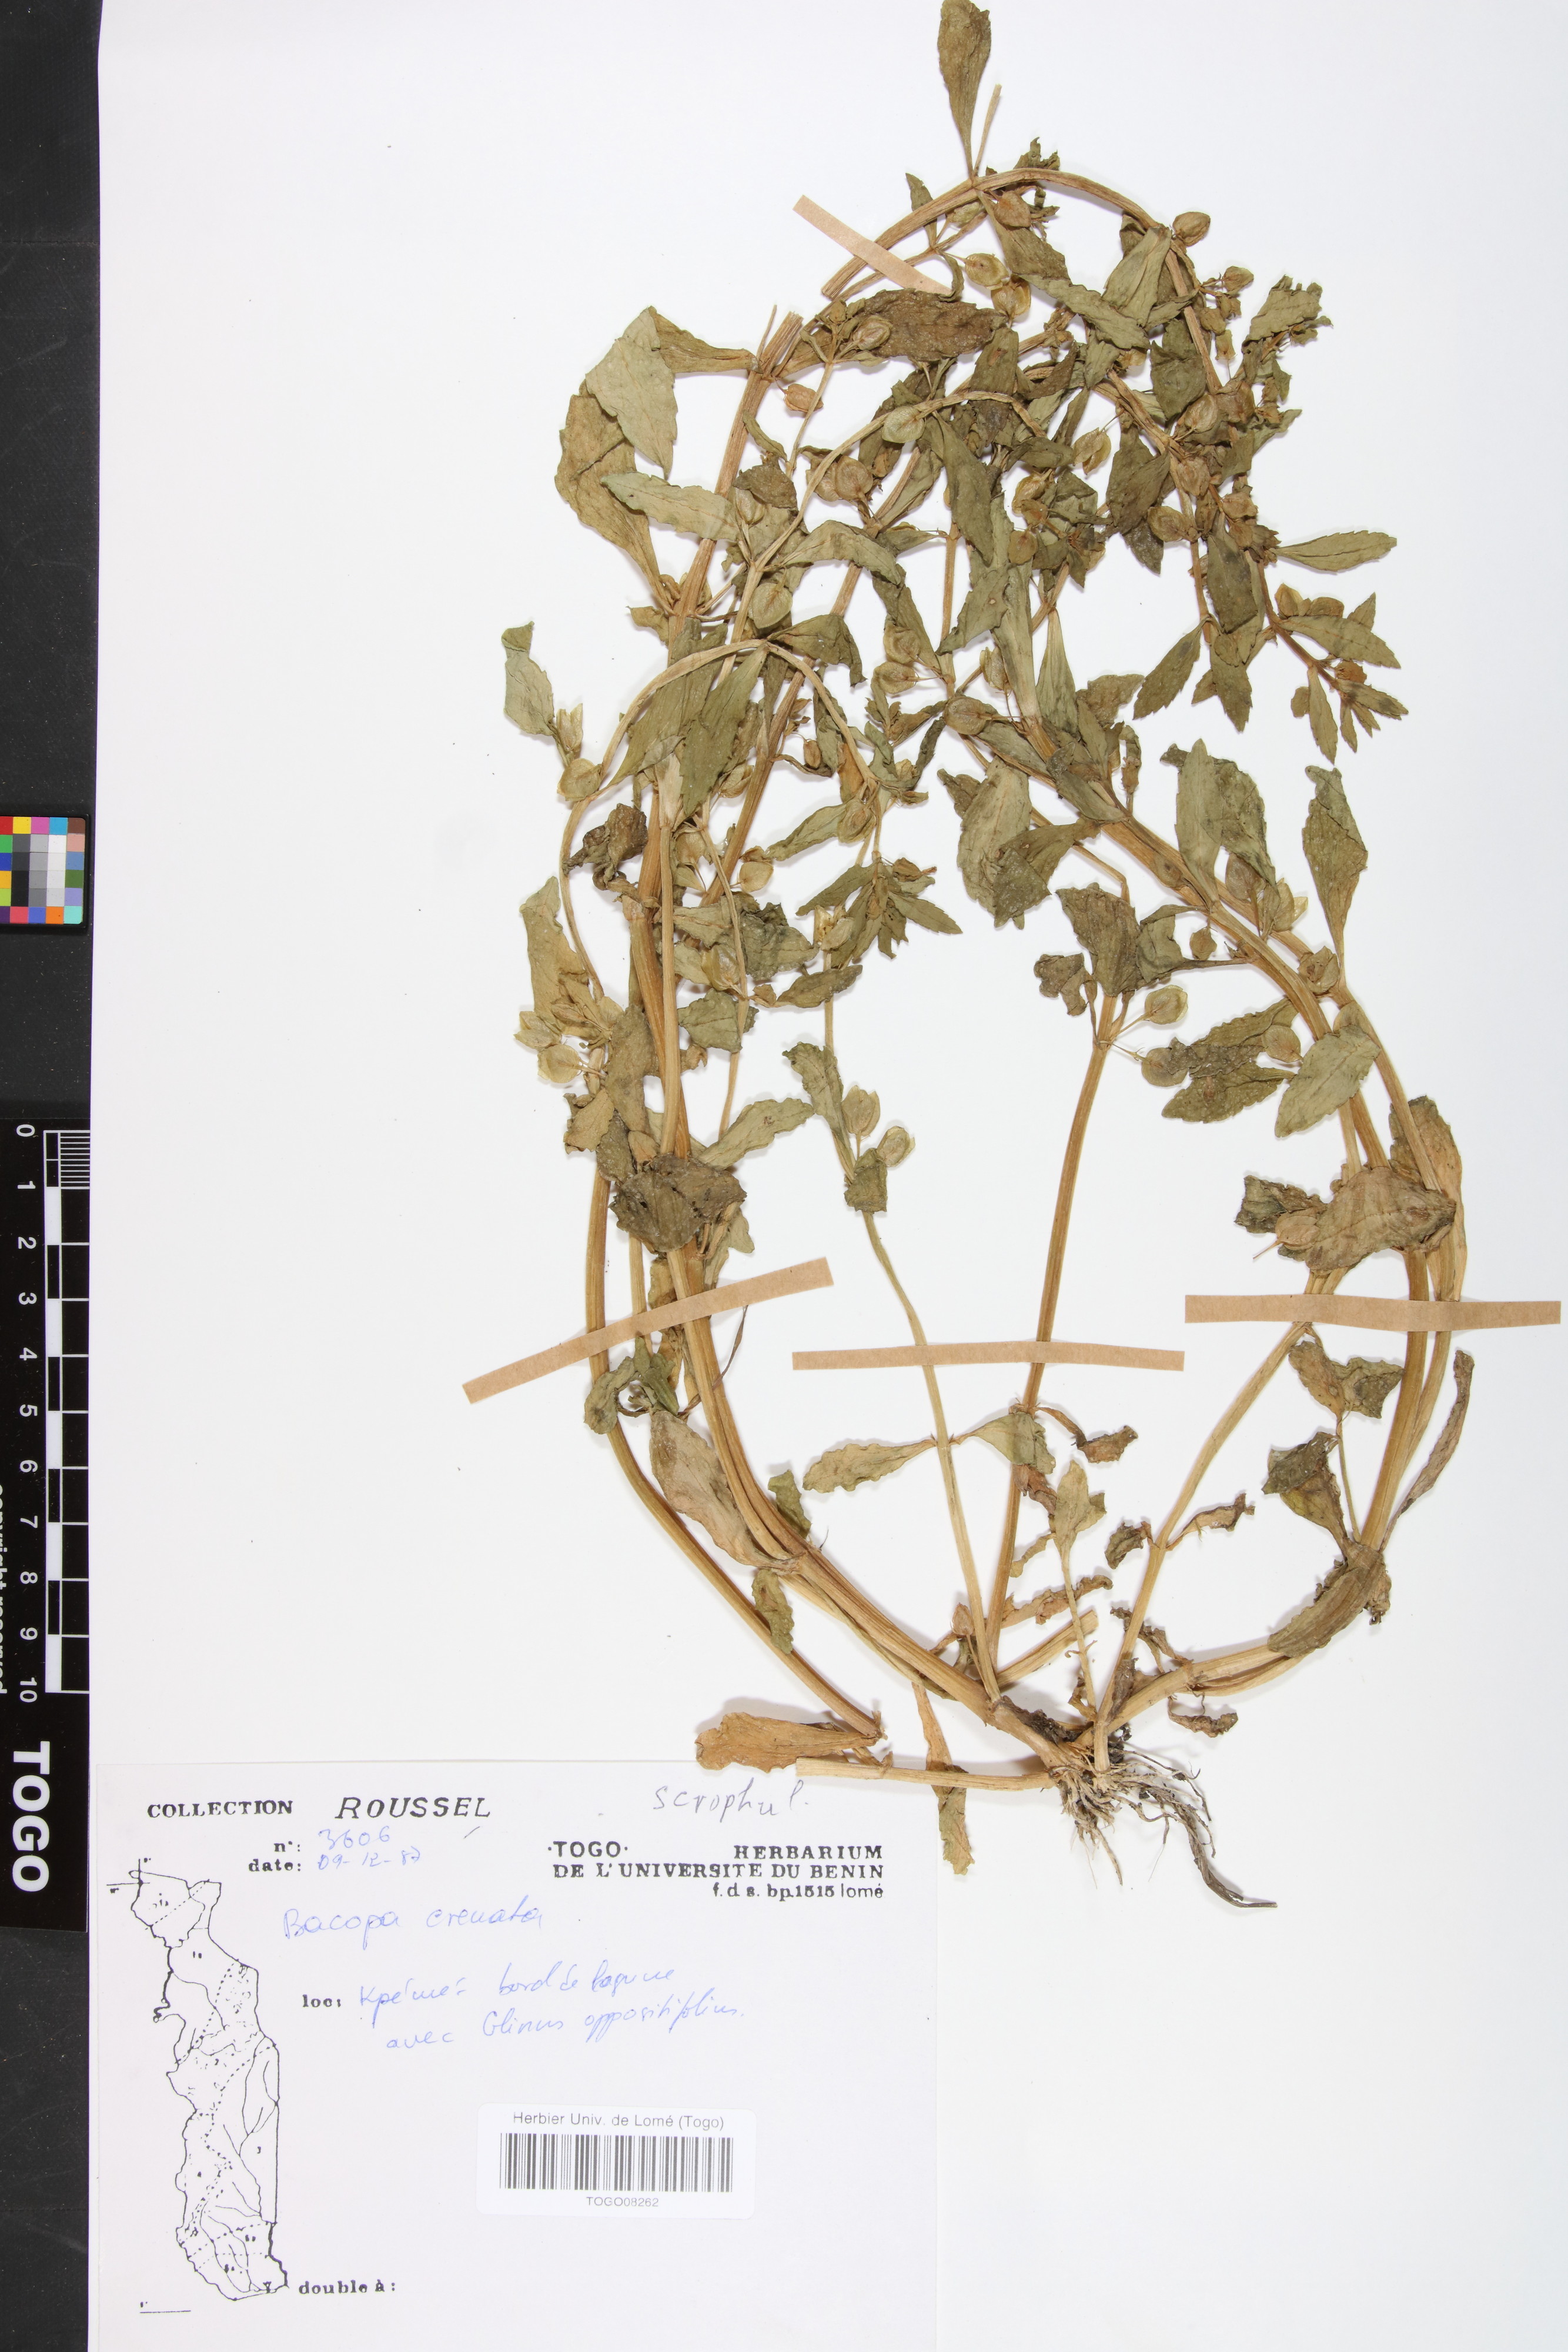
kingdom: Plantae
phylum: Tracheophyta
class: Magnoliopsida
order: Lamiales
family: Plantaginaceae
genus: Bacopa
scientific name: Bacopa crenata
